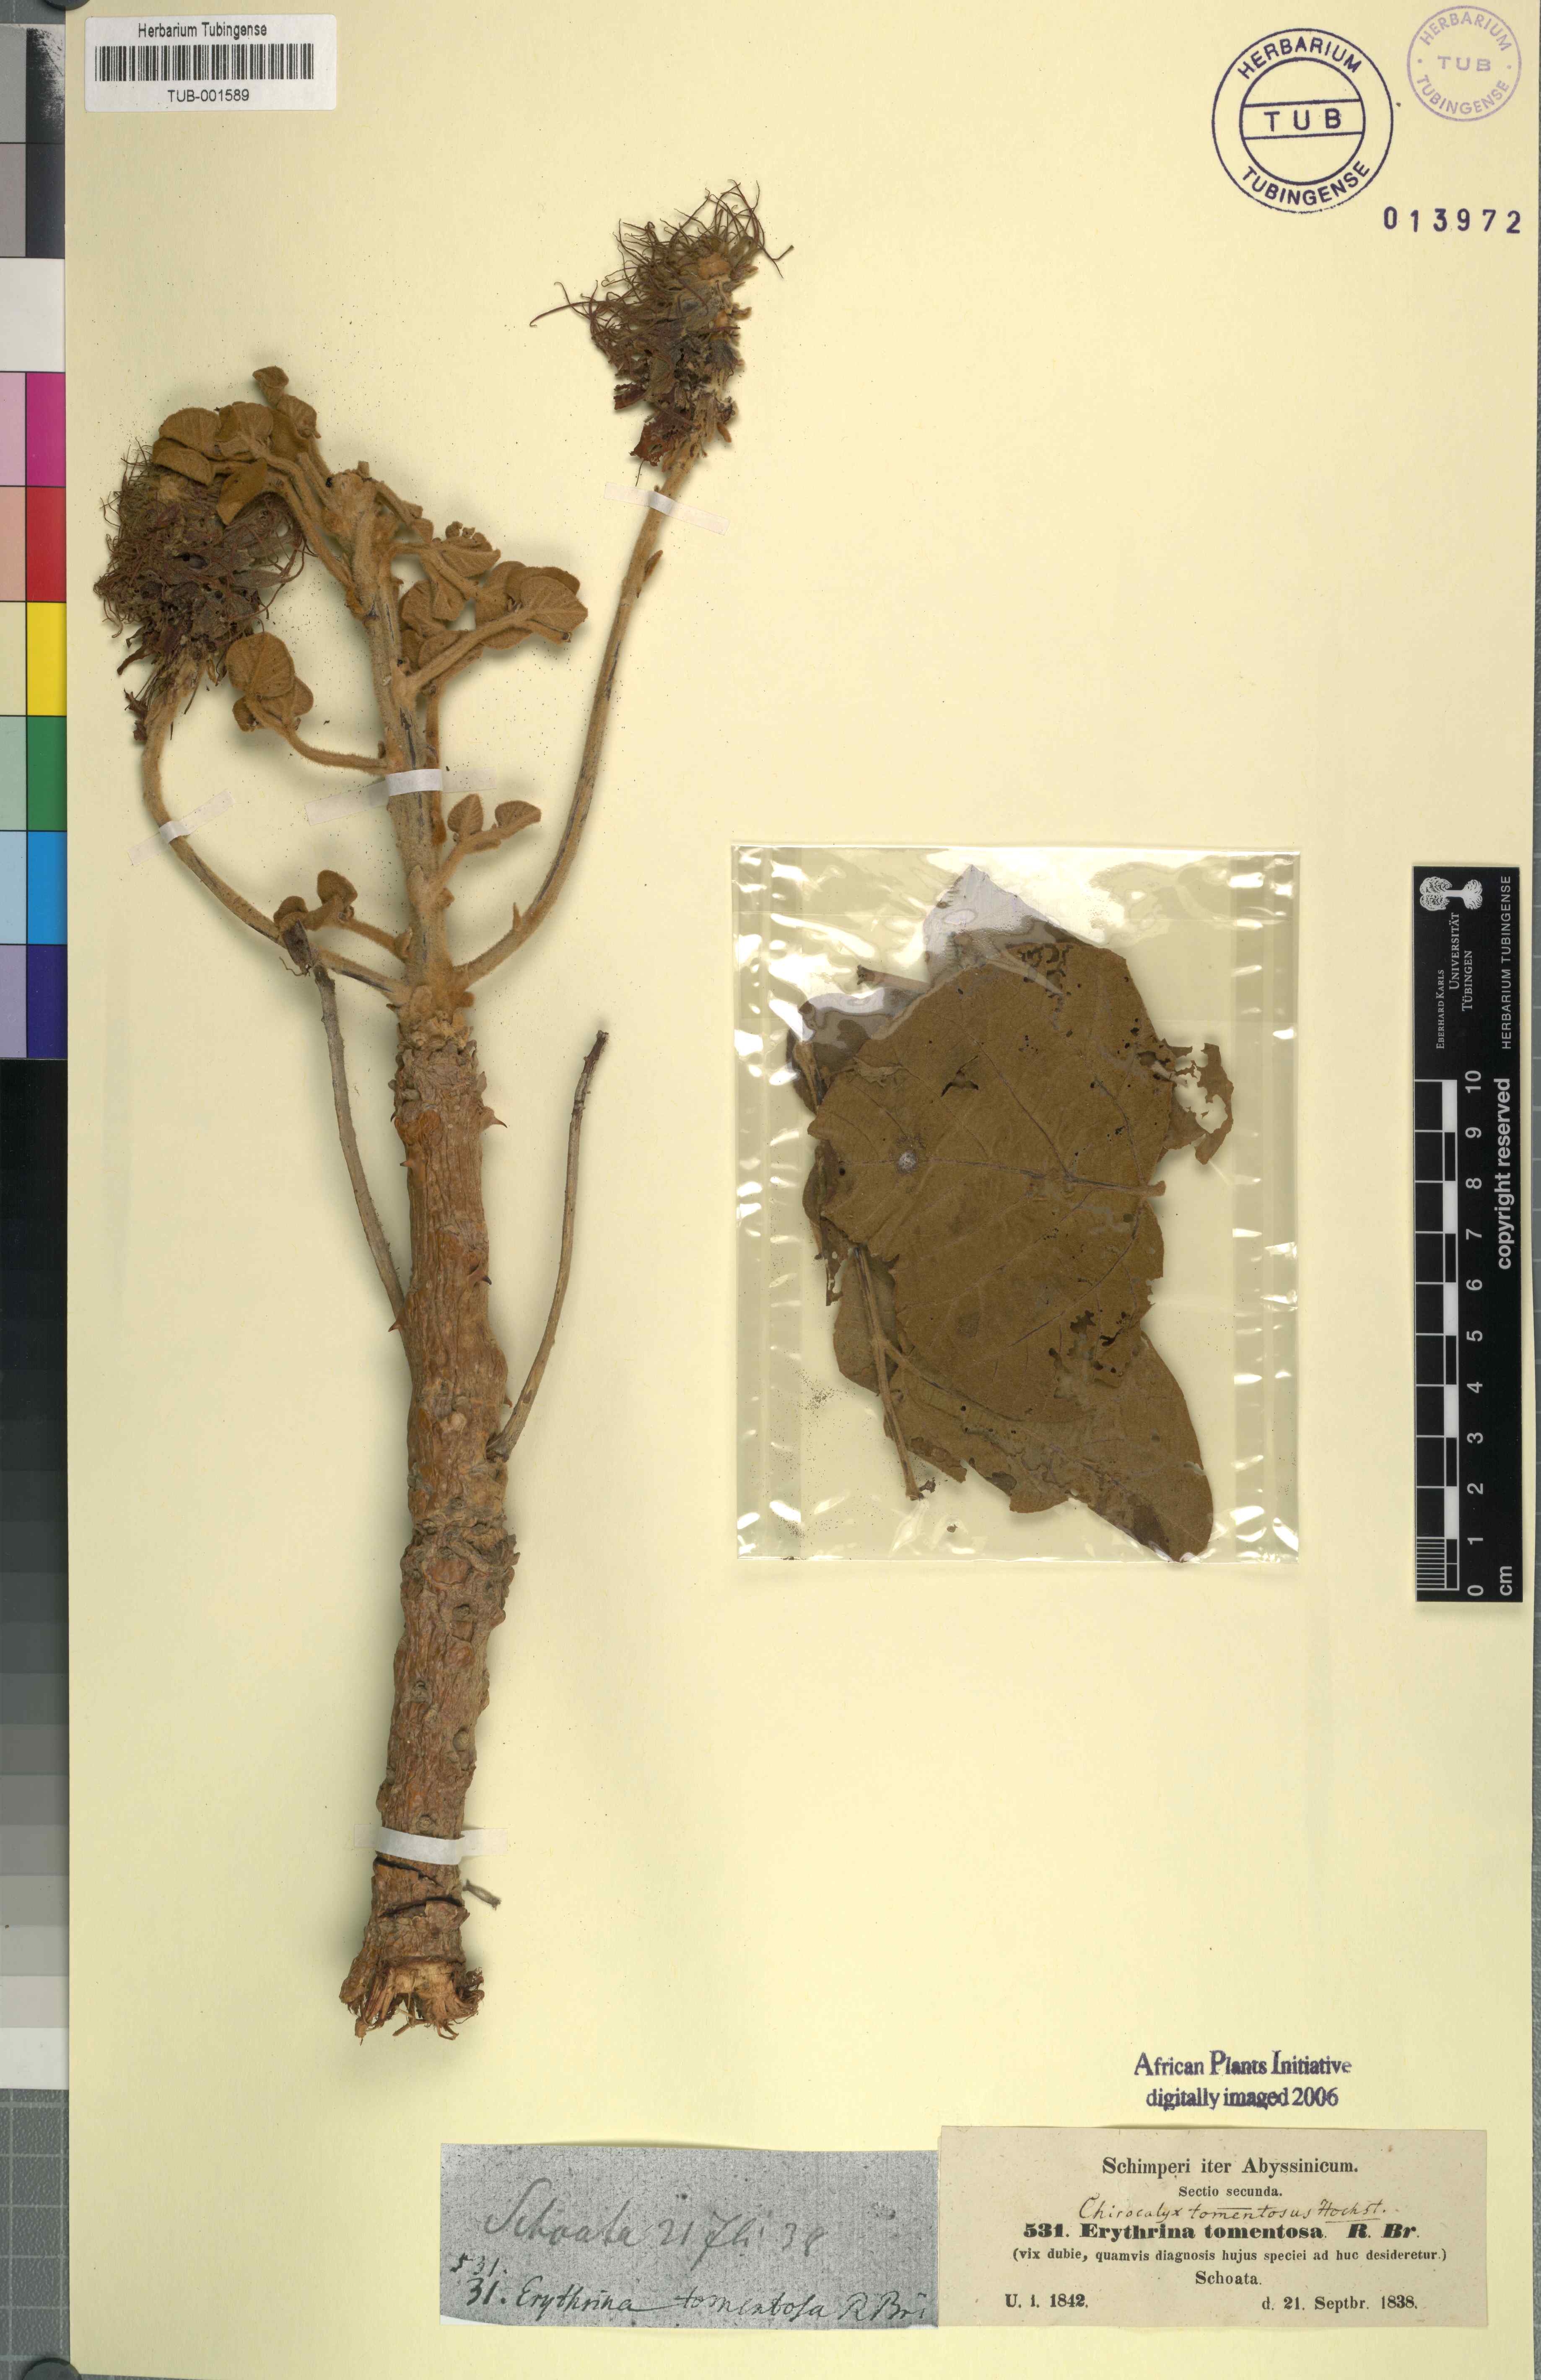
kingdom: Plantae
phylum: Tracheophyta
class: Magnoliopsida
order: Fabales
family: Fabaceae
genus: Erythrina
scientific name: Erythrina abyssinica
